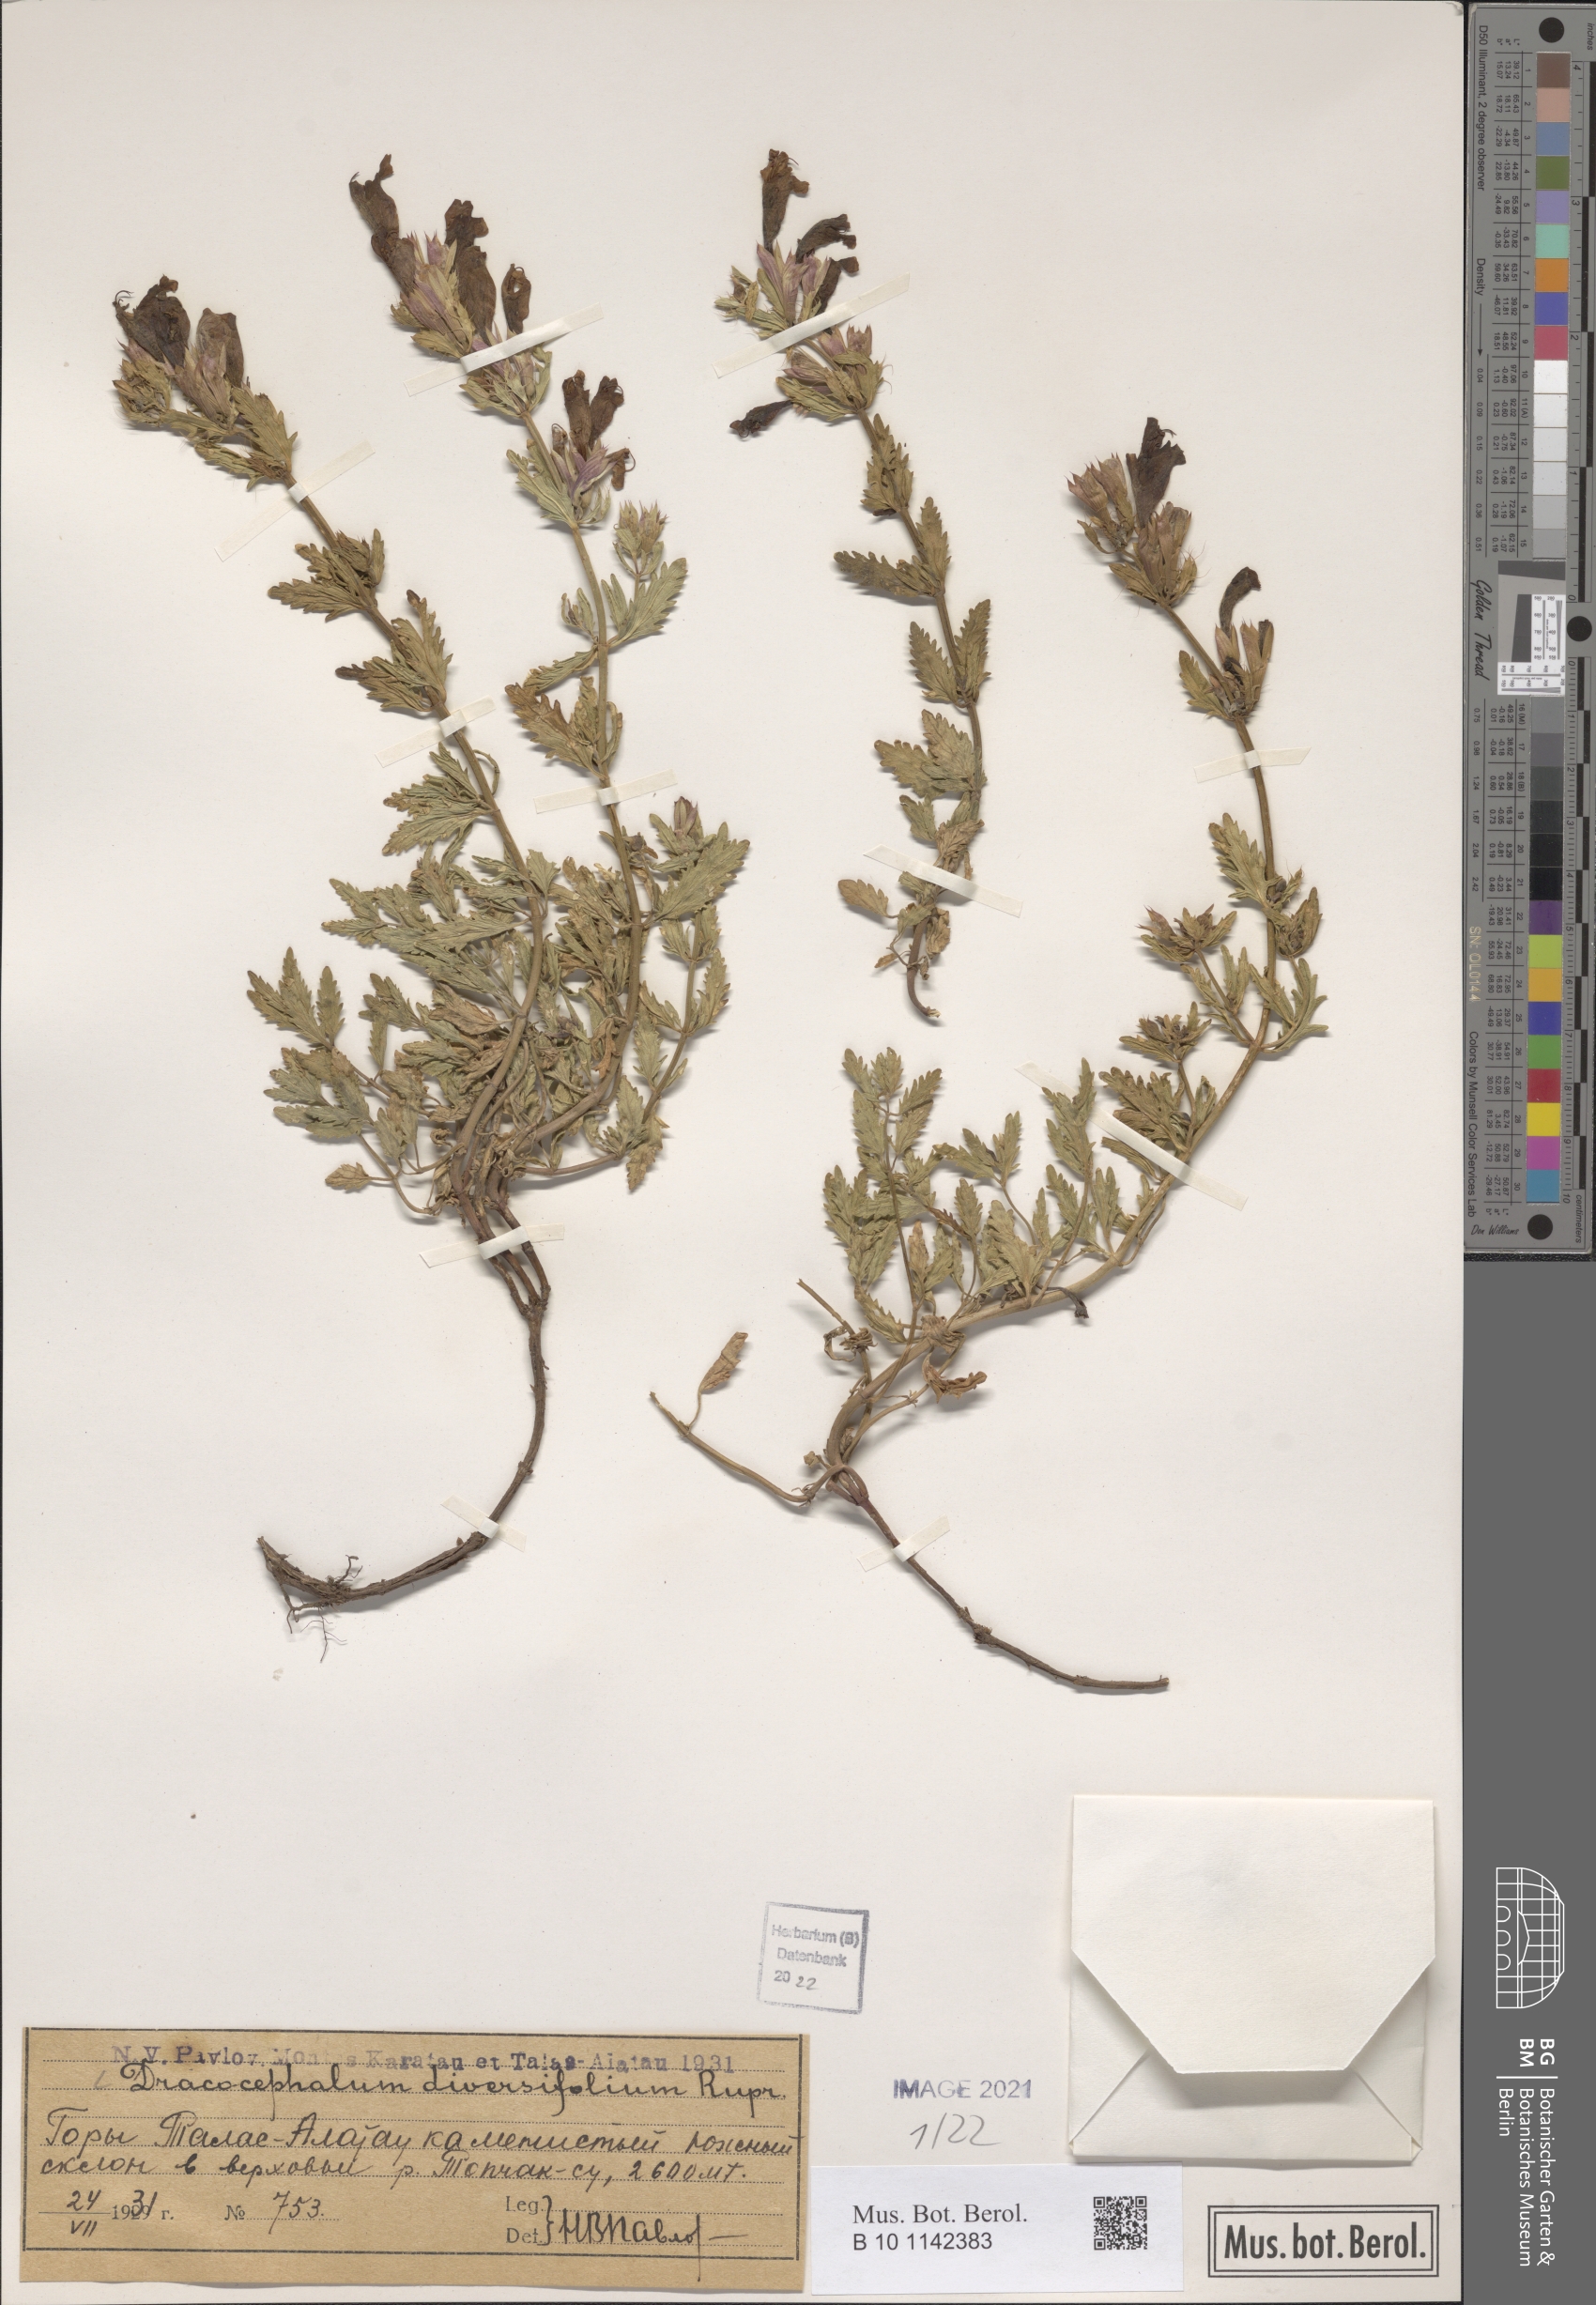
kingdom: Plantae
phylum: Tracheophyta
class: Magnoliopsida
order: Lamiales
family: Lamiaceae
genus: Dracocephalum
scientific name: Dracocephalum diversifolium
